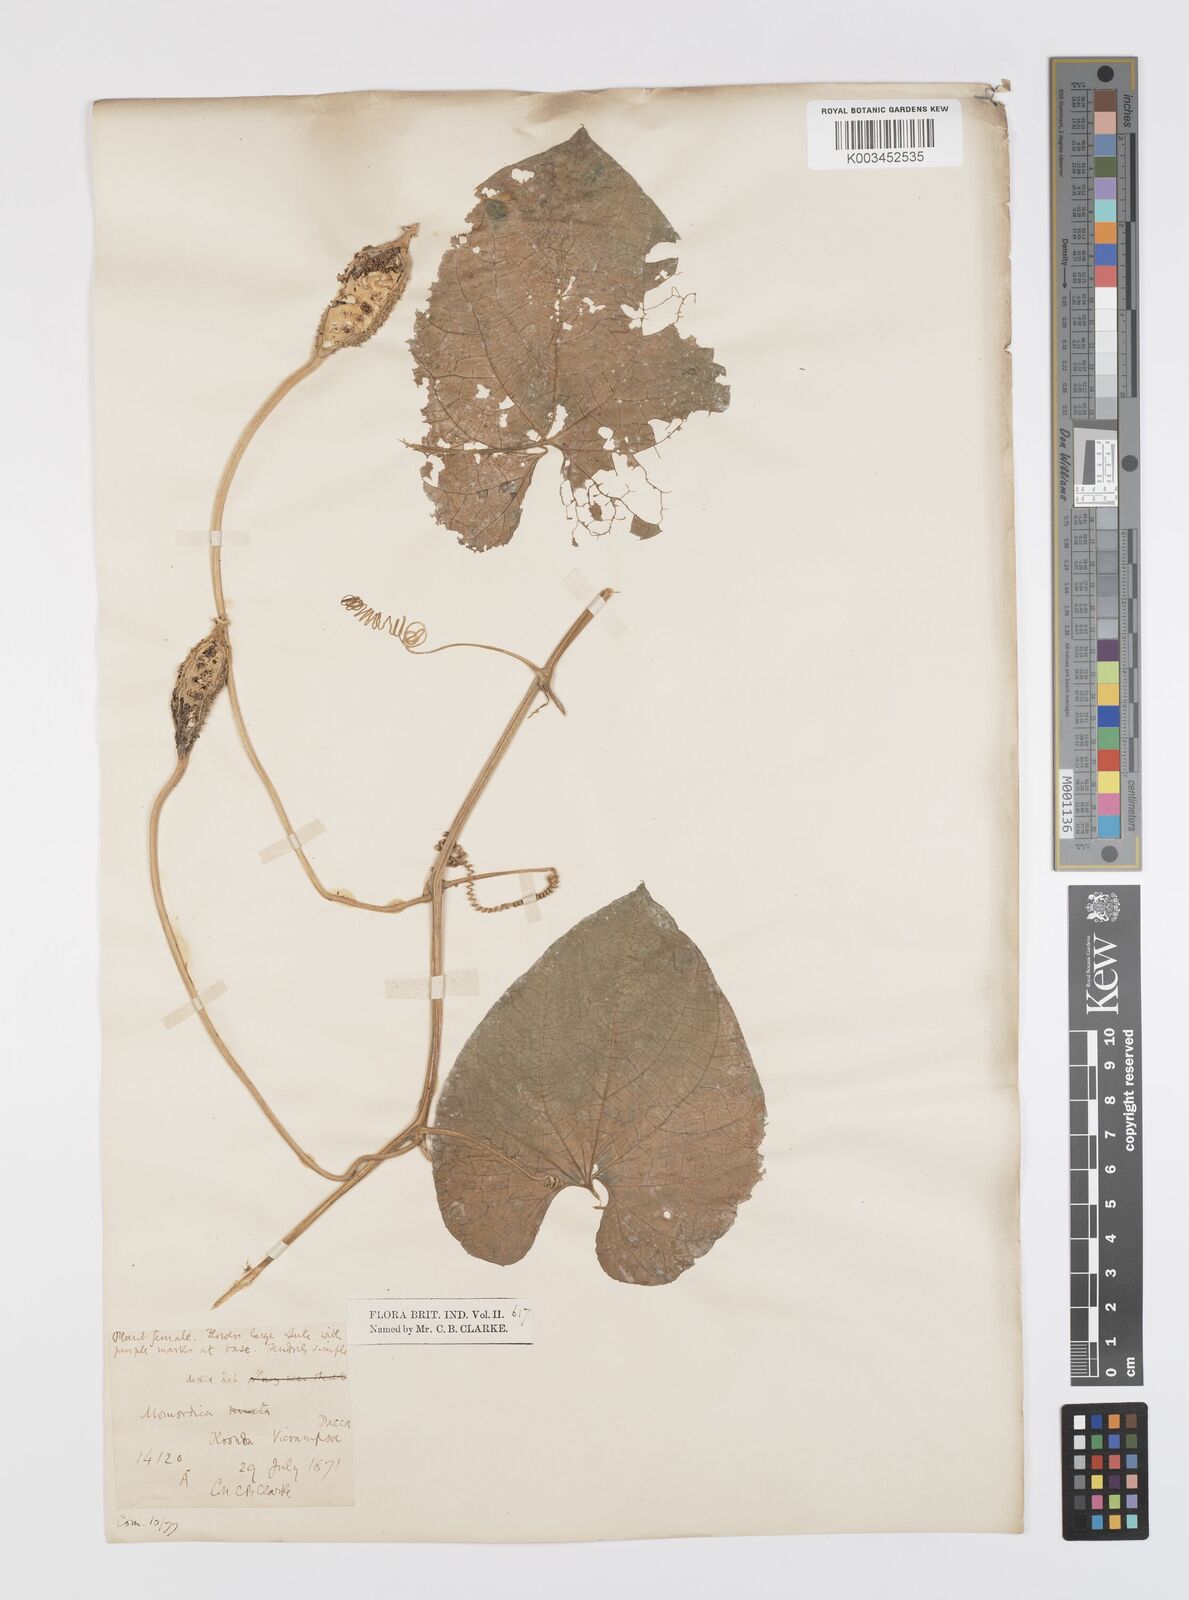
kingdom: Plantae
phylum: Tracheophyta
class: Magnoliopsida
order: Cucurbitales
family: Cucurbitaceae
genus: Momordica
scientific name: Momordica dioica
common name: Spine gourd
